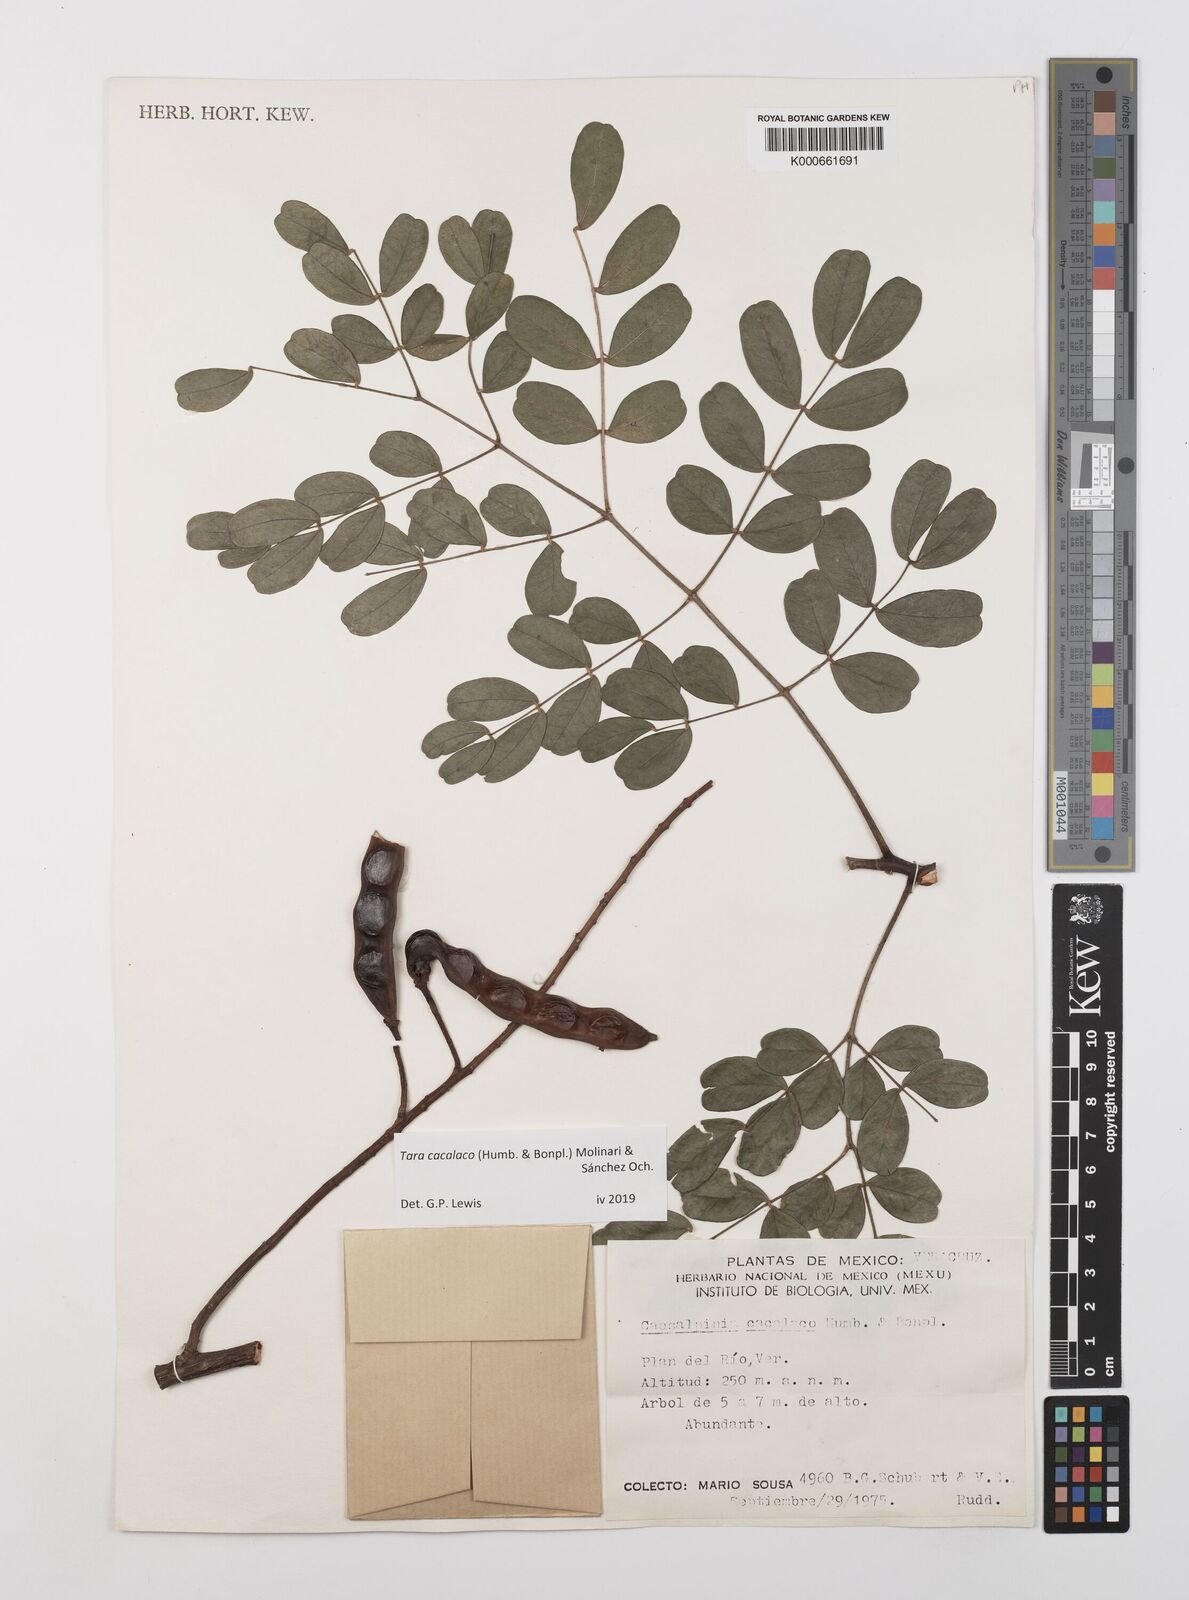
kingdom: Plantae
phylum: Tracheophyta
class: Magnoliopsida
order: Fabales
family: Fabaceae
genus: Tara
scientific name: Tara cacalaco
